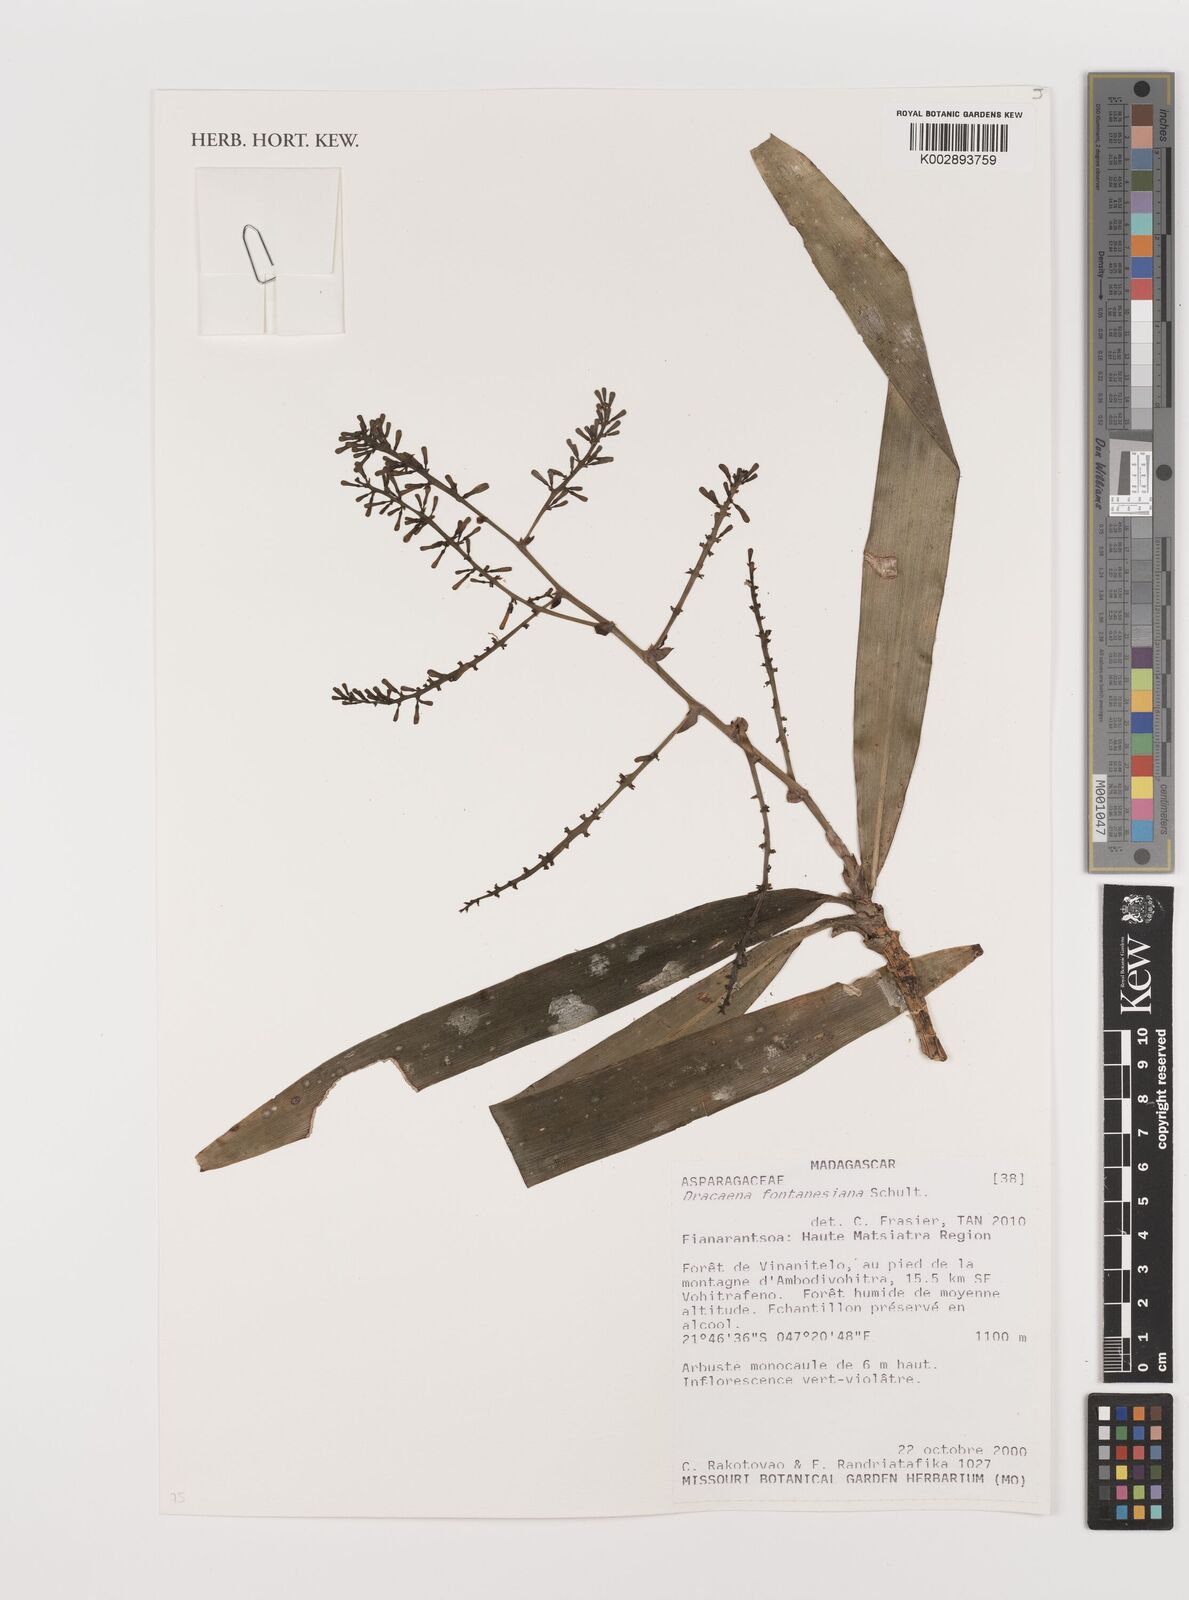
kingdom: Plantae
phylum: Tracheophyta
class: Liliopsida
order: Asparagales
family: Asparagaceae
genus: Dracaena
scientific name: Dracaena fontanesiana
